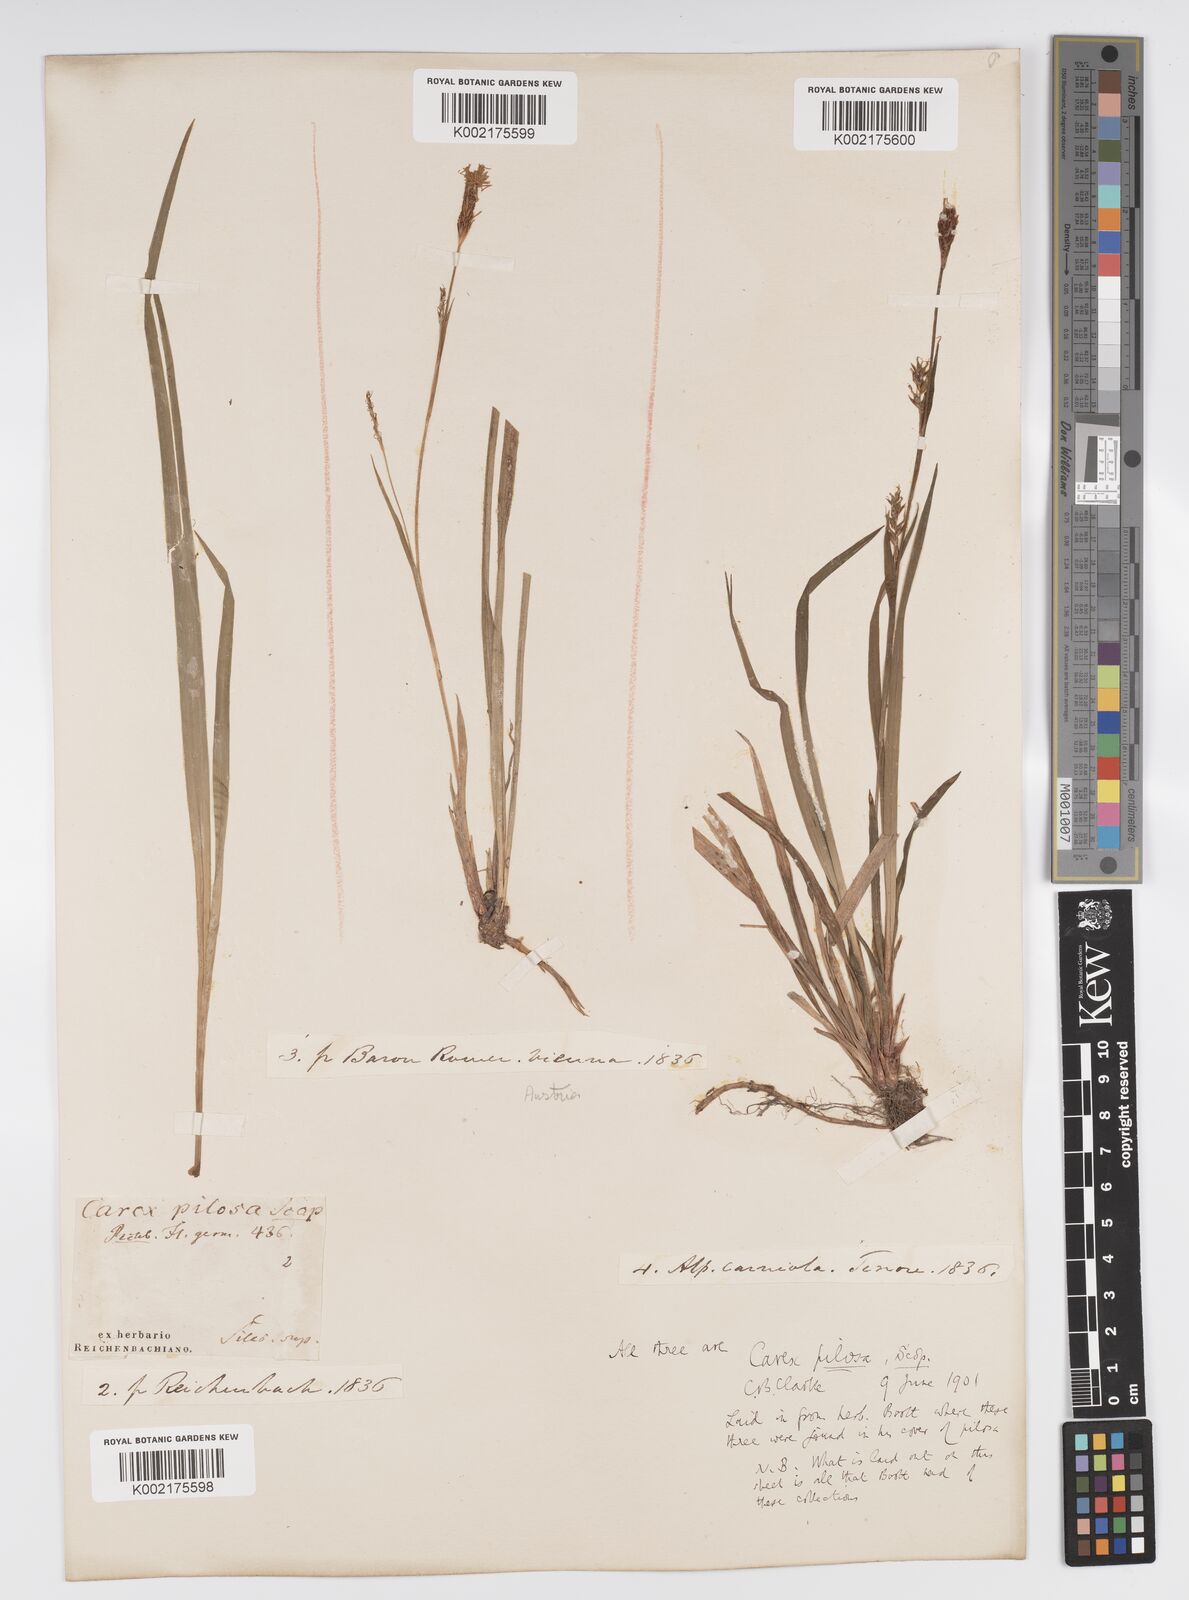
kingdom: Plantae
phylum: Tracheophyta
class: Liliopsida
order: Poales
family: Cyperaceae
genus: Carex
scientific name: Carex pilosa
